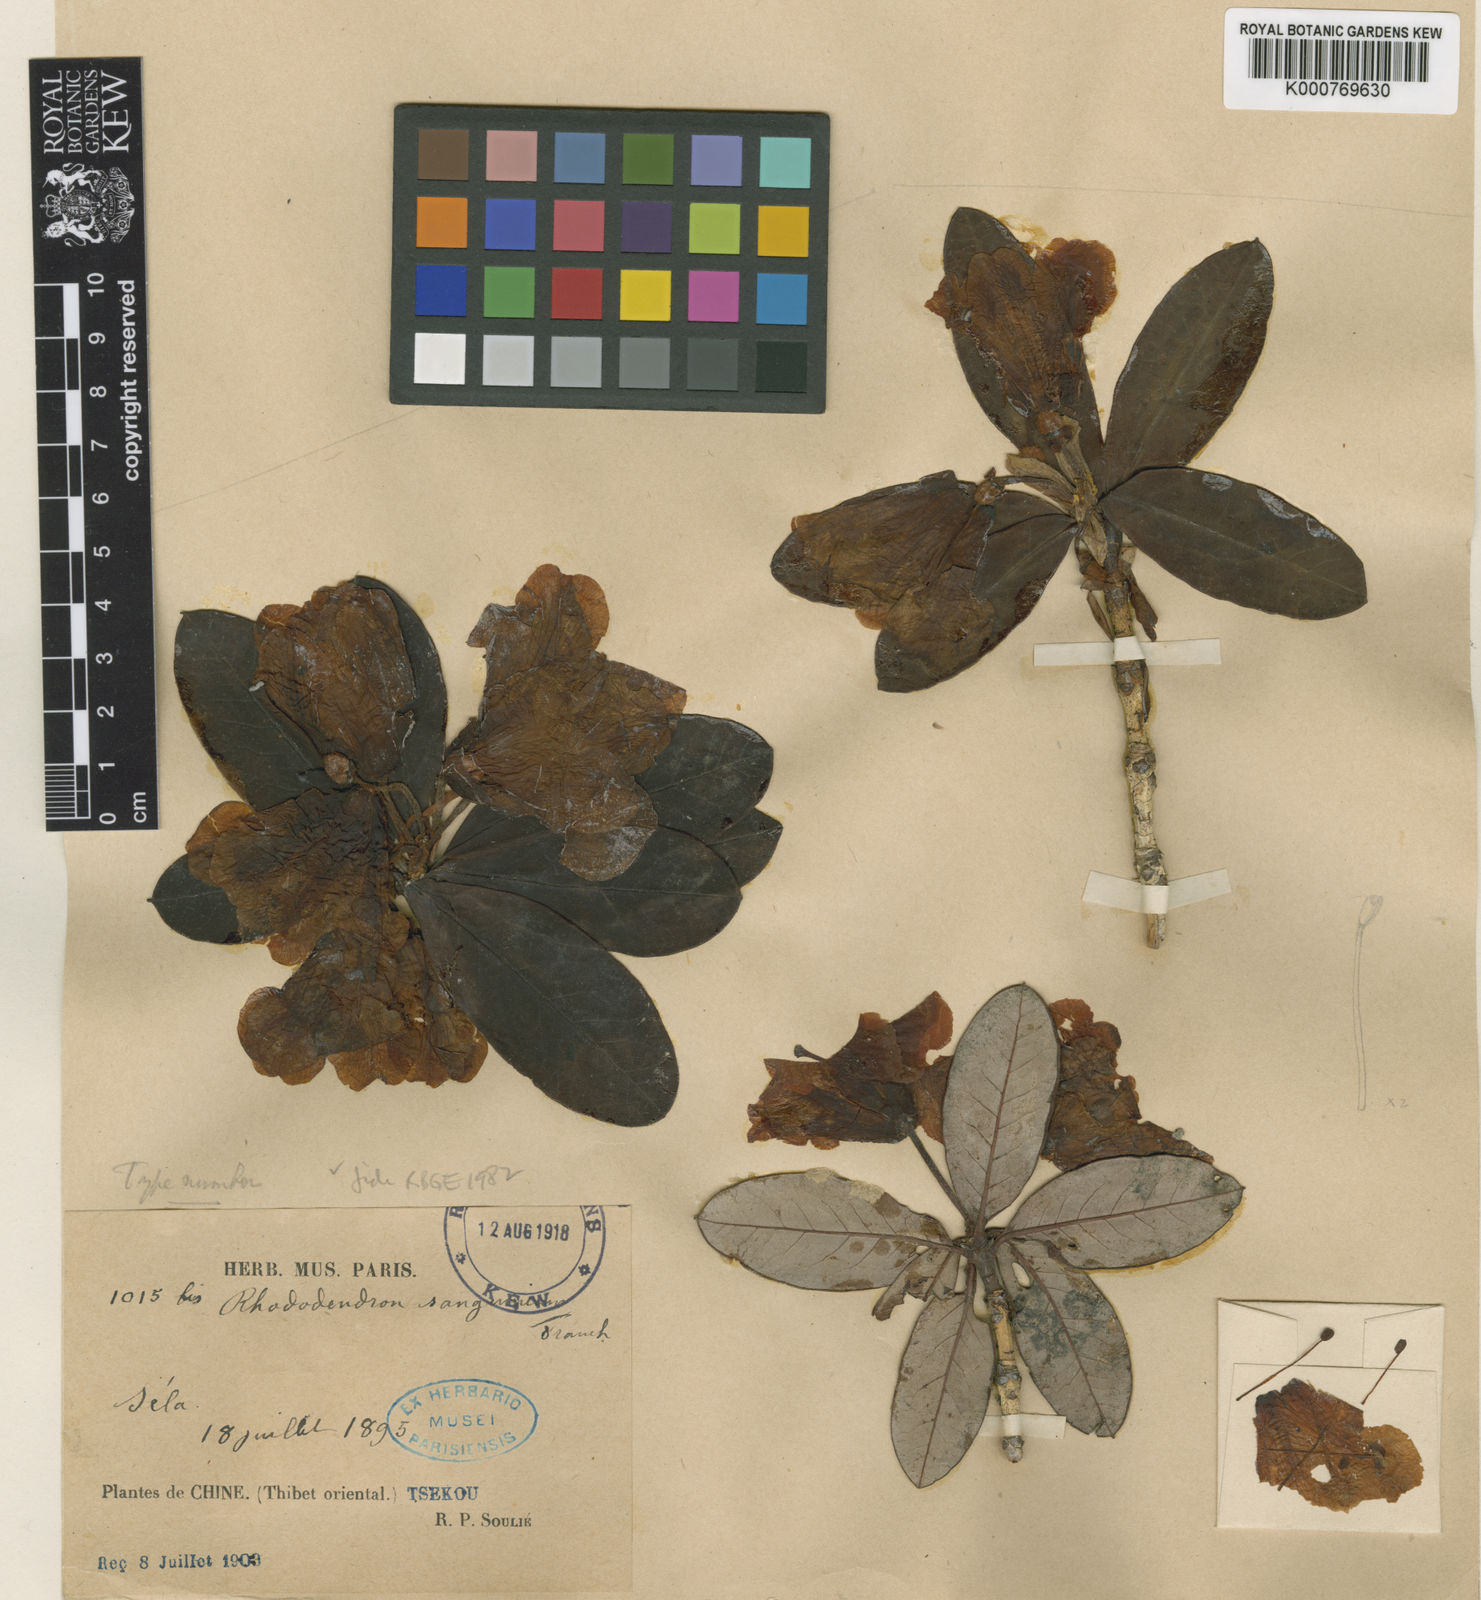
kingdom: Plantae
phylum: Tracheophyta
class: Magnoliopsida
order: Ericales
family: Ericaceae
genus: Rhododendron
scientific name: Rhododendron sanguineum
